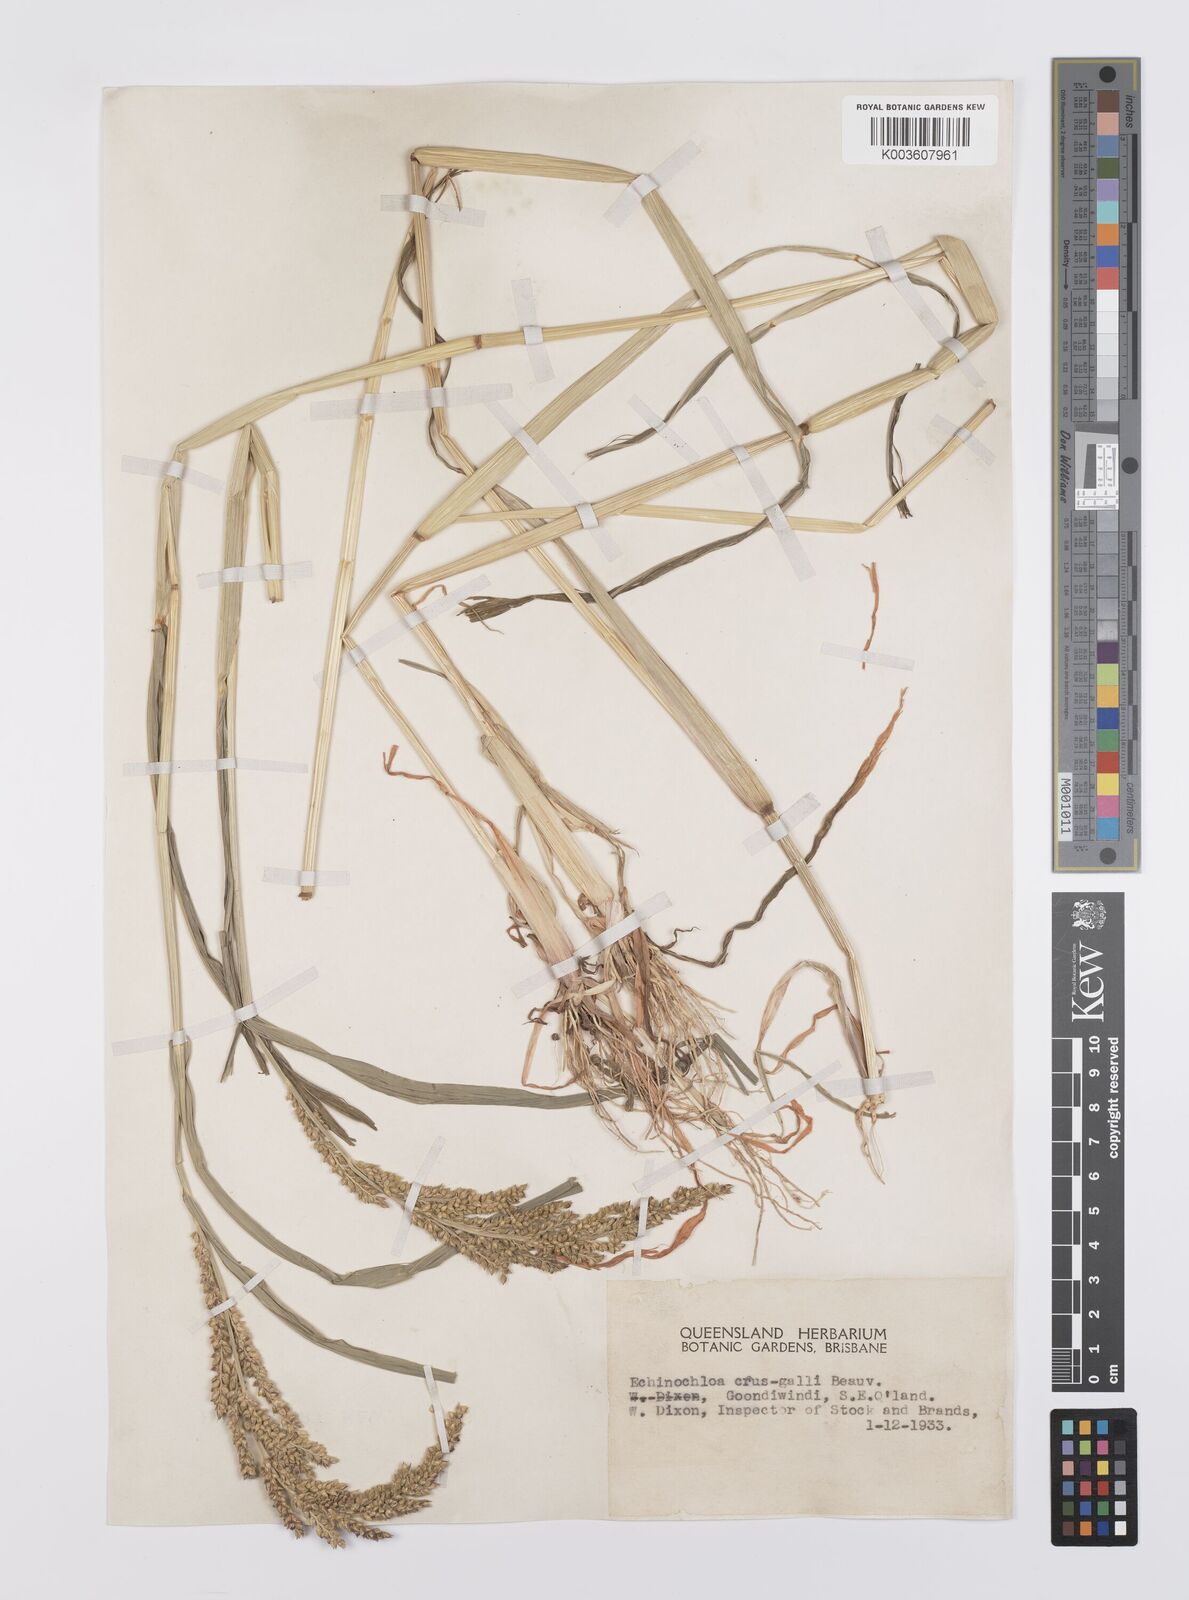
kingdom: Plantae
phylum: Tracheophyta
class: Liliopsida
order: Poales
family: Poaceae
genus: Echinochloa
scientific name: Echinochloa crus-galli
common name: Cockspur
